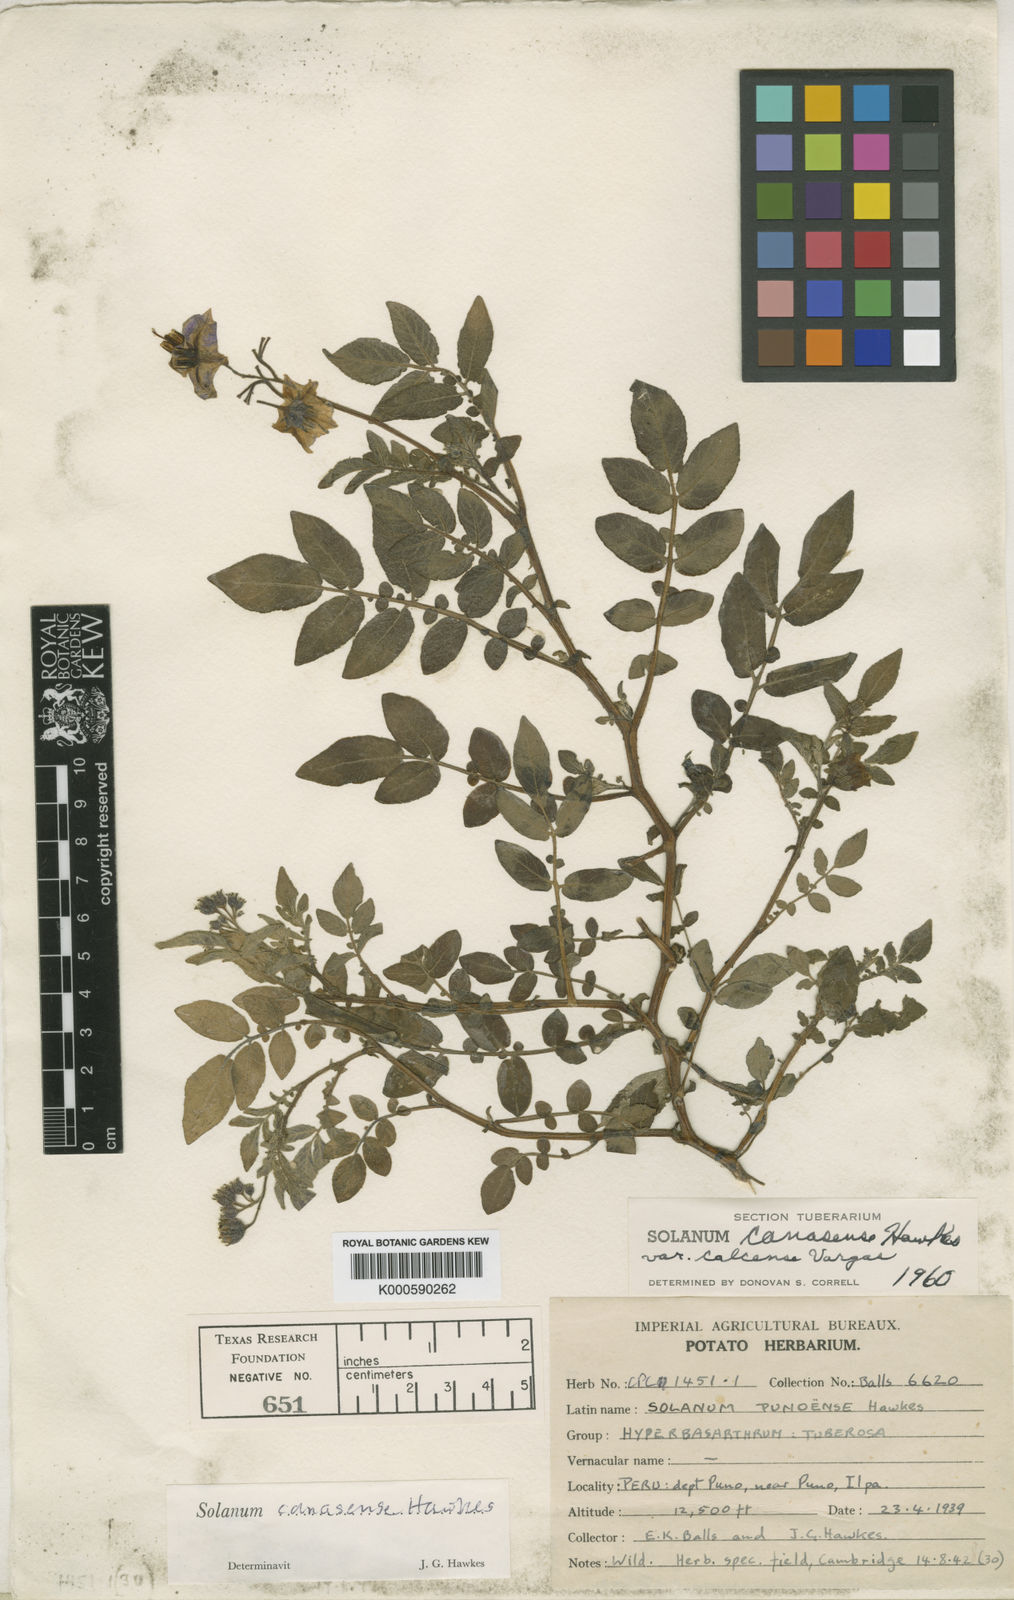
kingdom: Plantae
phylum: Tracheophyta
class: Magnoliopsida
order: Solanales
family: Solanaceae
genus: Solanum
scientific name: Solanum candolleanum
